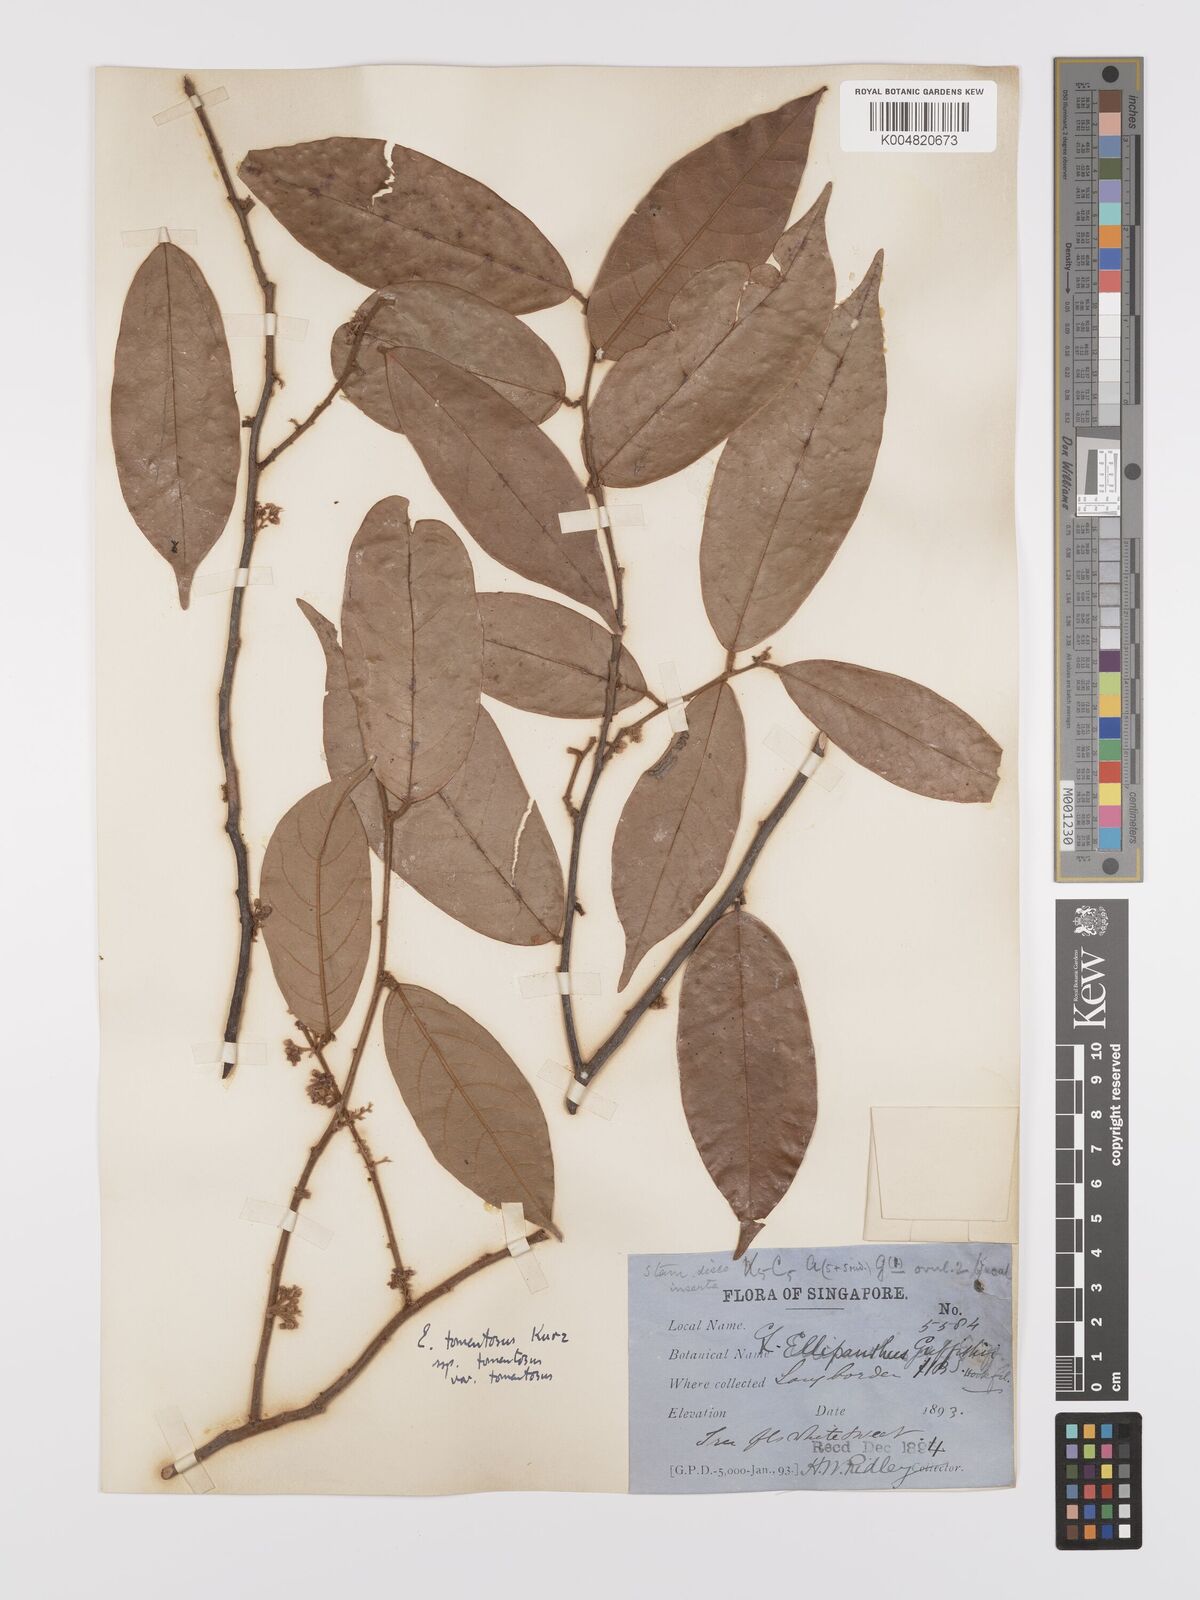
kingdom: Plantae
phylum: Tracheophyta
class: Magnoliopsida
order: Oxalidales
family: Connaraceae
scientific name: Connaraceae
